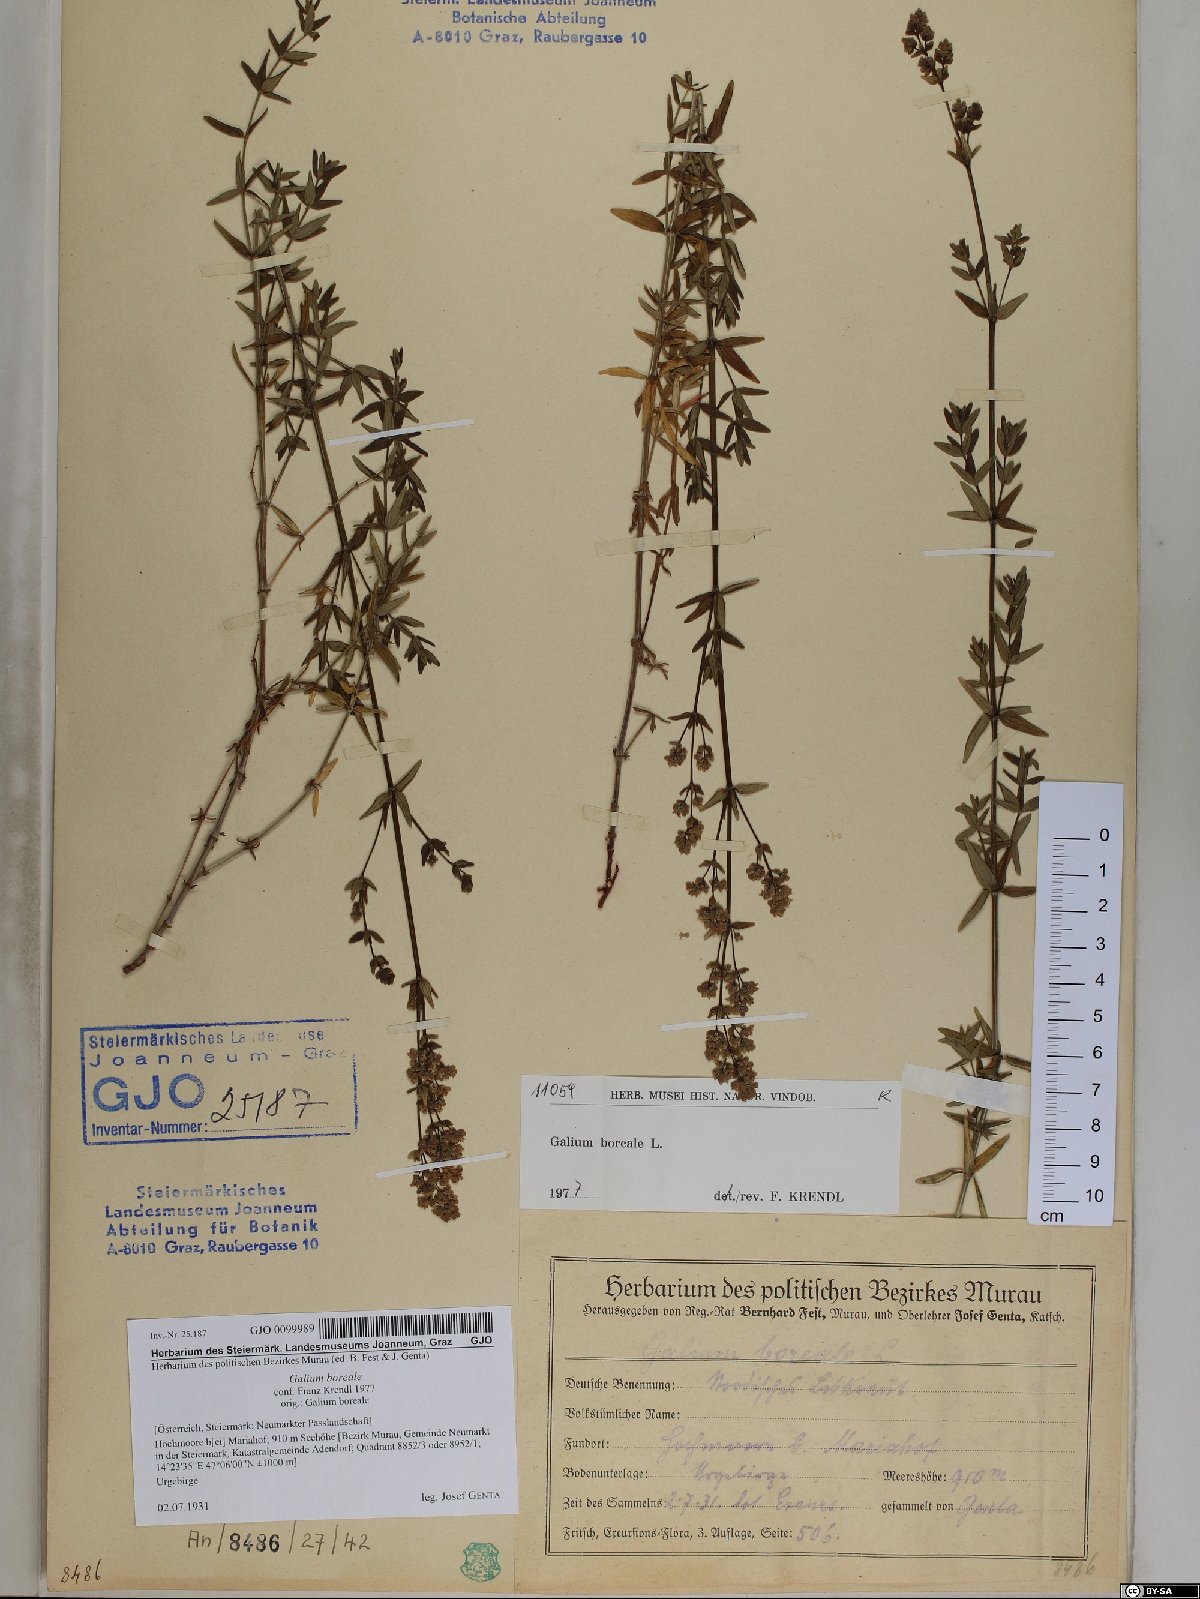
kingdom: Plantae
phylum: Tracheophyta
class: Magnoliopsida
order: Gentianales
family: Rubiaceae
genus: Galium
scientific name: Galium boreale
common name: Northern bedstraw
